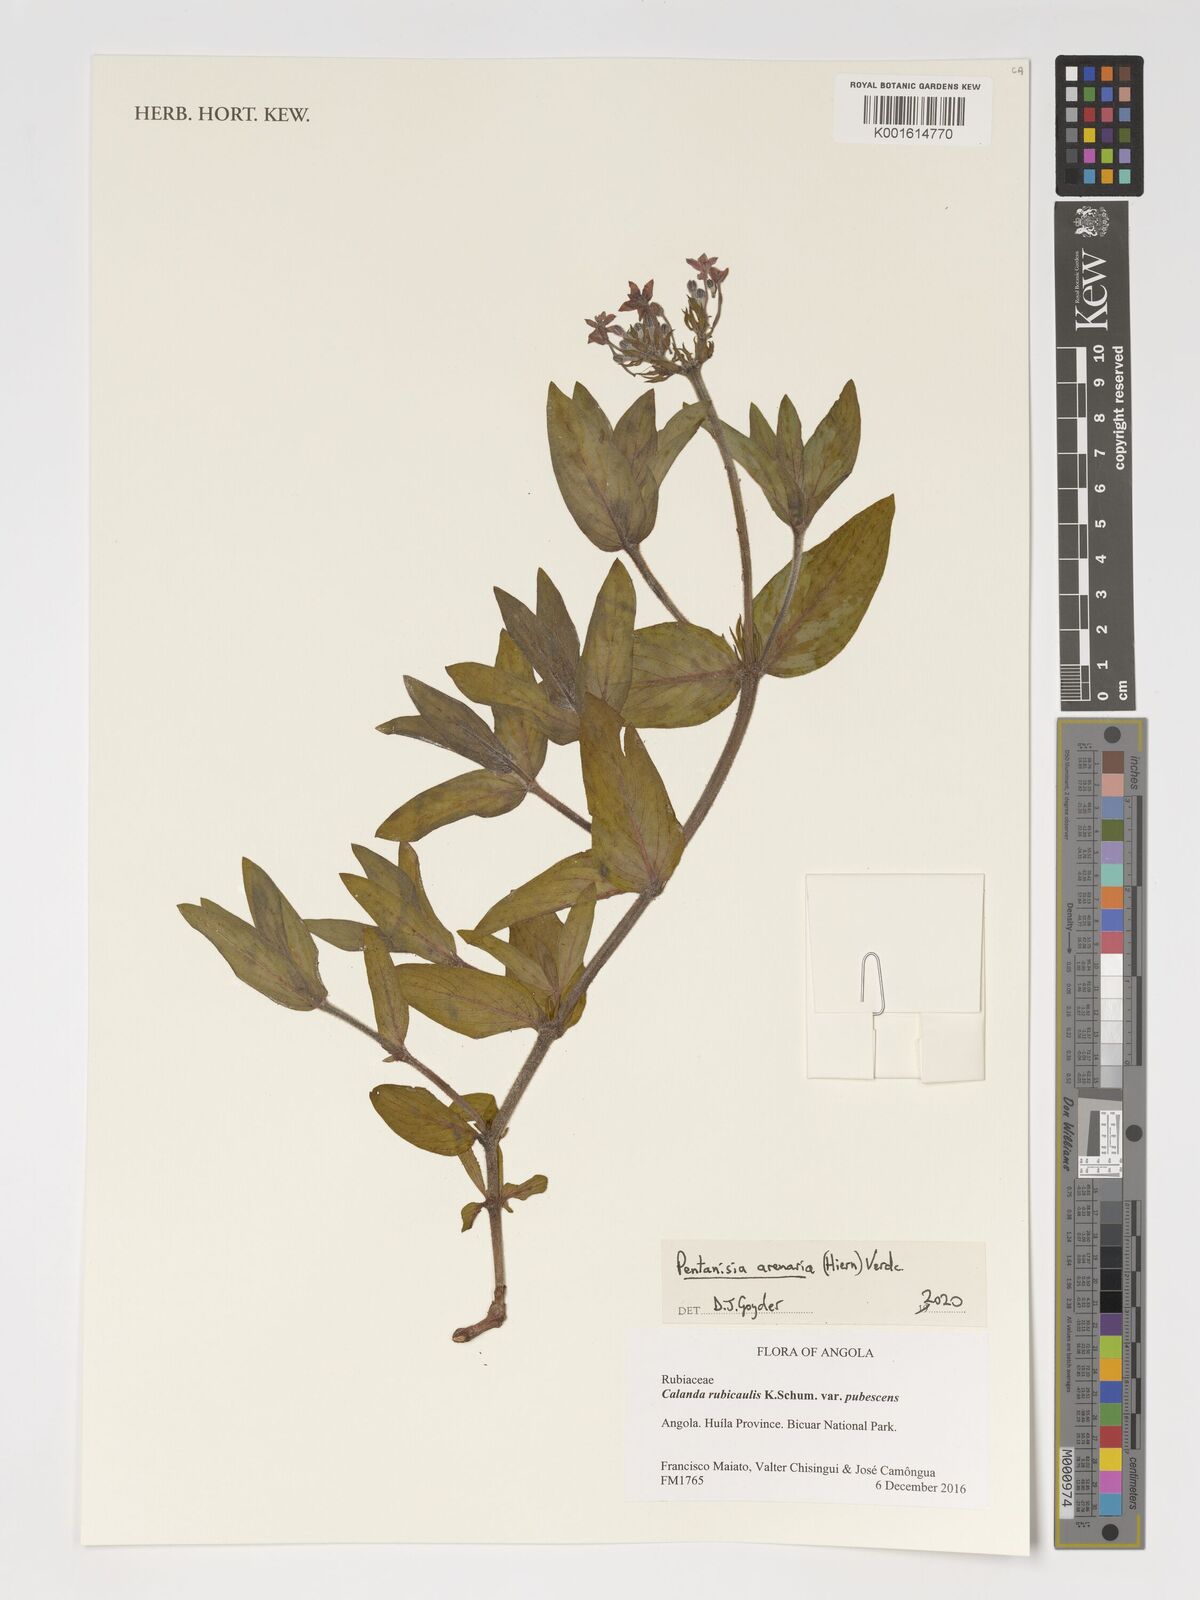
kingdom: Plantae
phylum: Tracheophyta
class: Magnoliopsida
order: Gentianales
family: Rubiaceae
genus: Pentanisia
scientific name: Pentanisia arenaria
